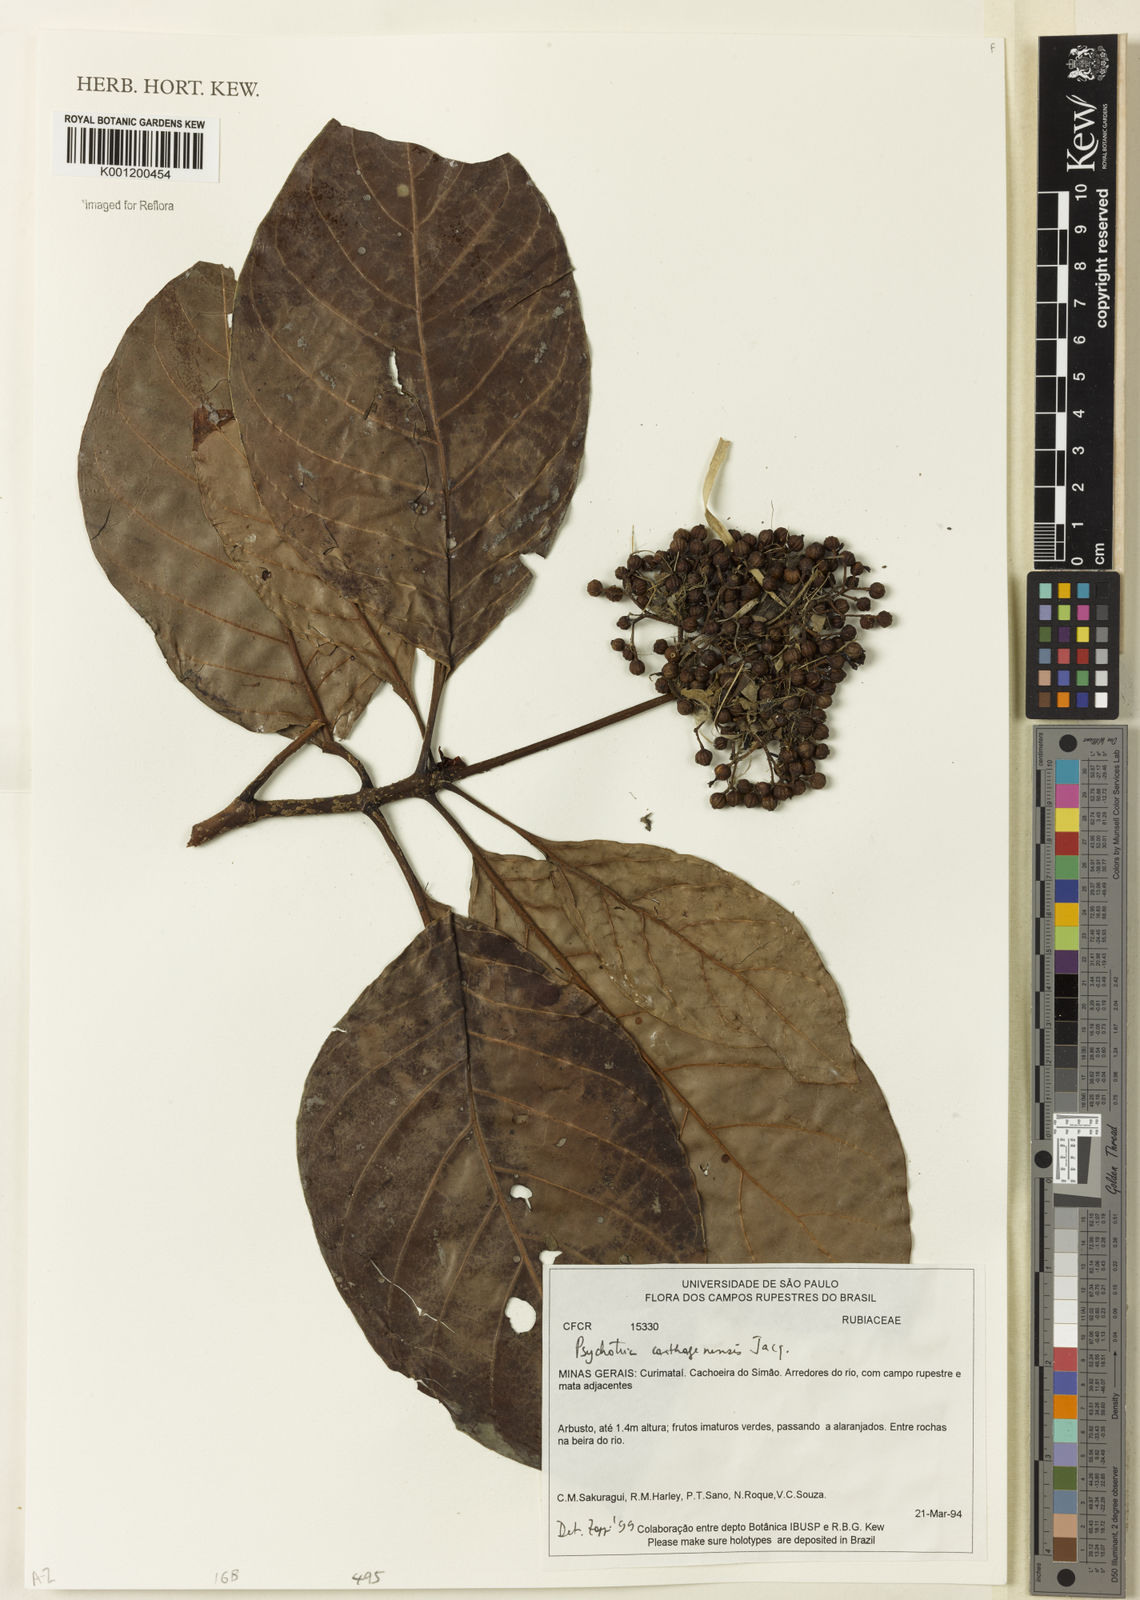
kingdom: Plantae
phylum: Tracheophyta
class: Magnoliopsida
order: Gentianales
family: Rubiaceae
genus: Psychotria
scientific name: Psychotria carthagenensis
